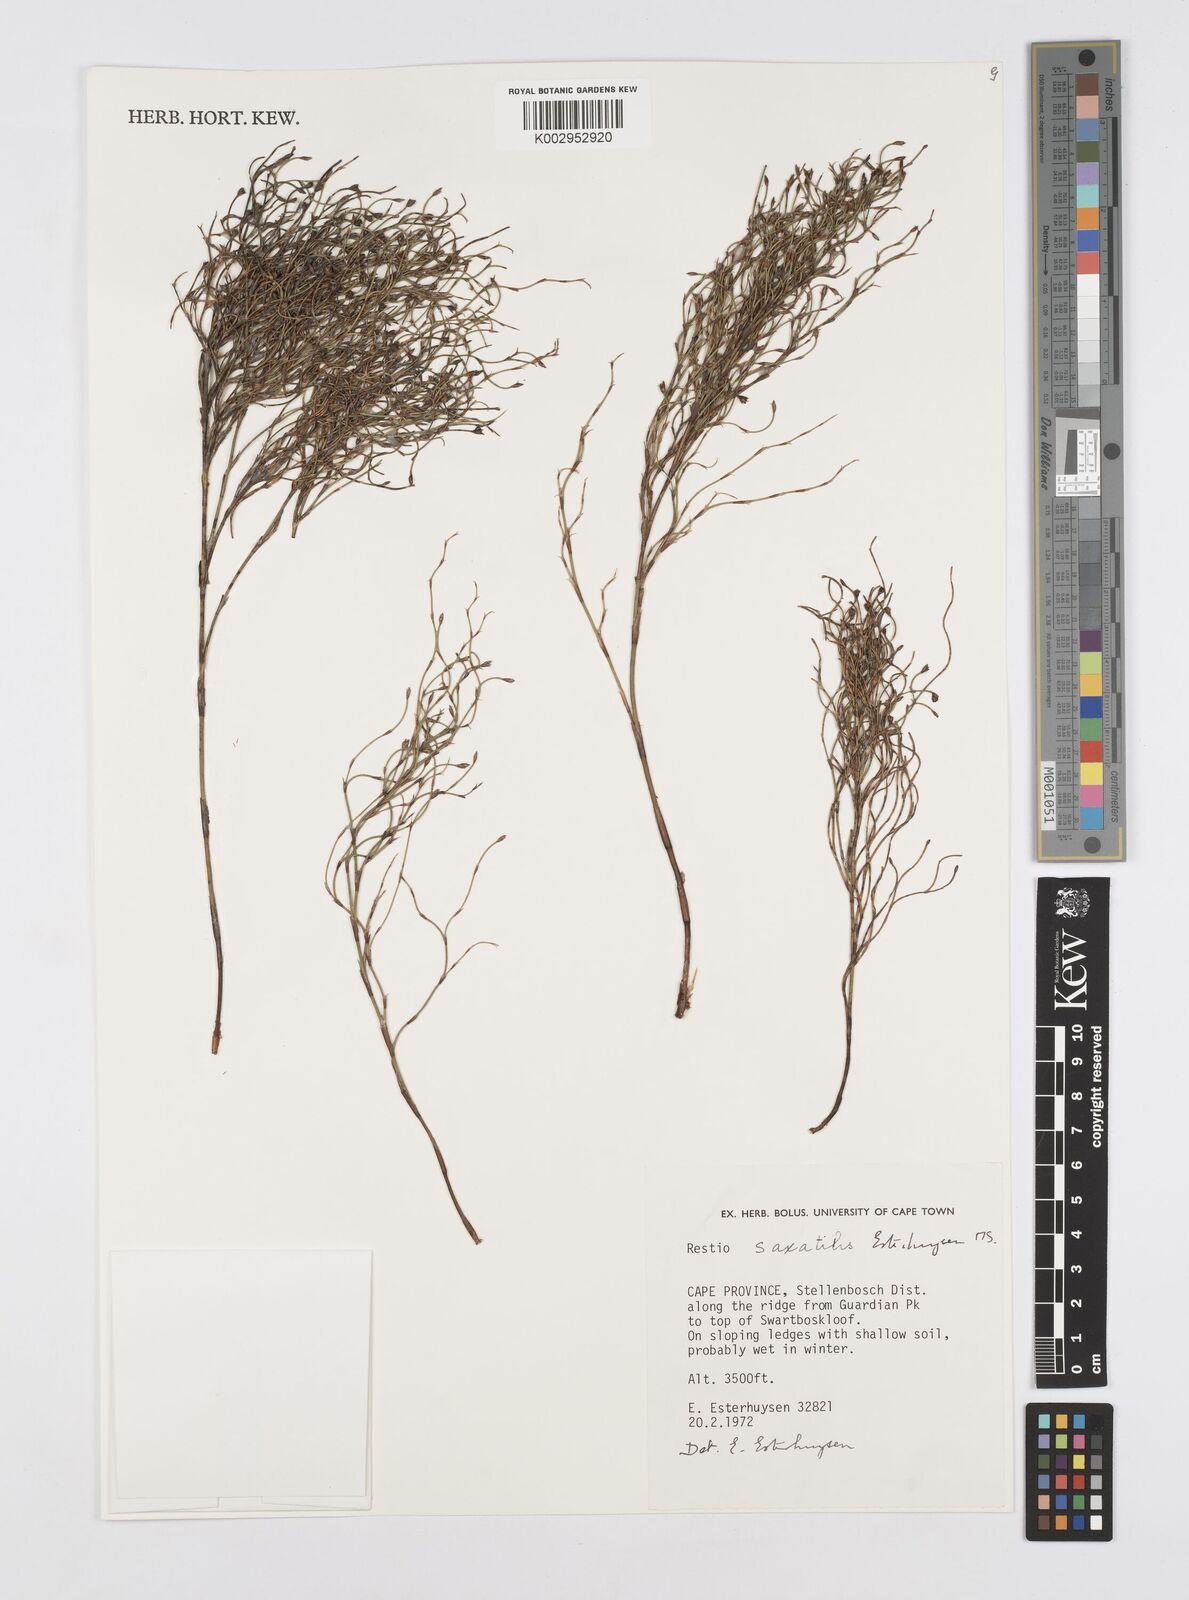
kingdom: Plantae
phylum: Tracheophyta
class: Liliopsida
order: Poales
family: Restionaceae
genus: Restio
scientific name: Restio saxatilis
